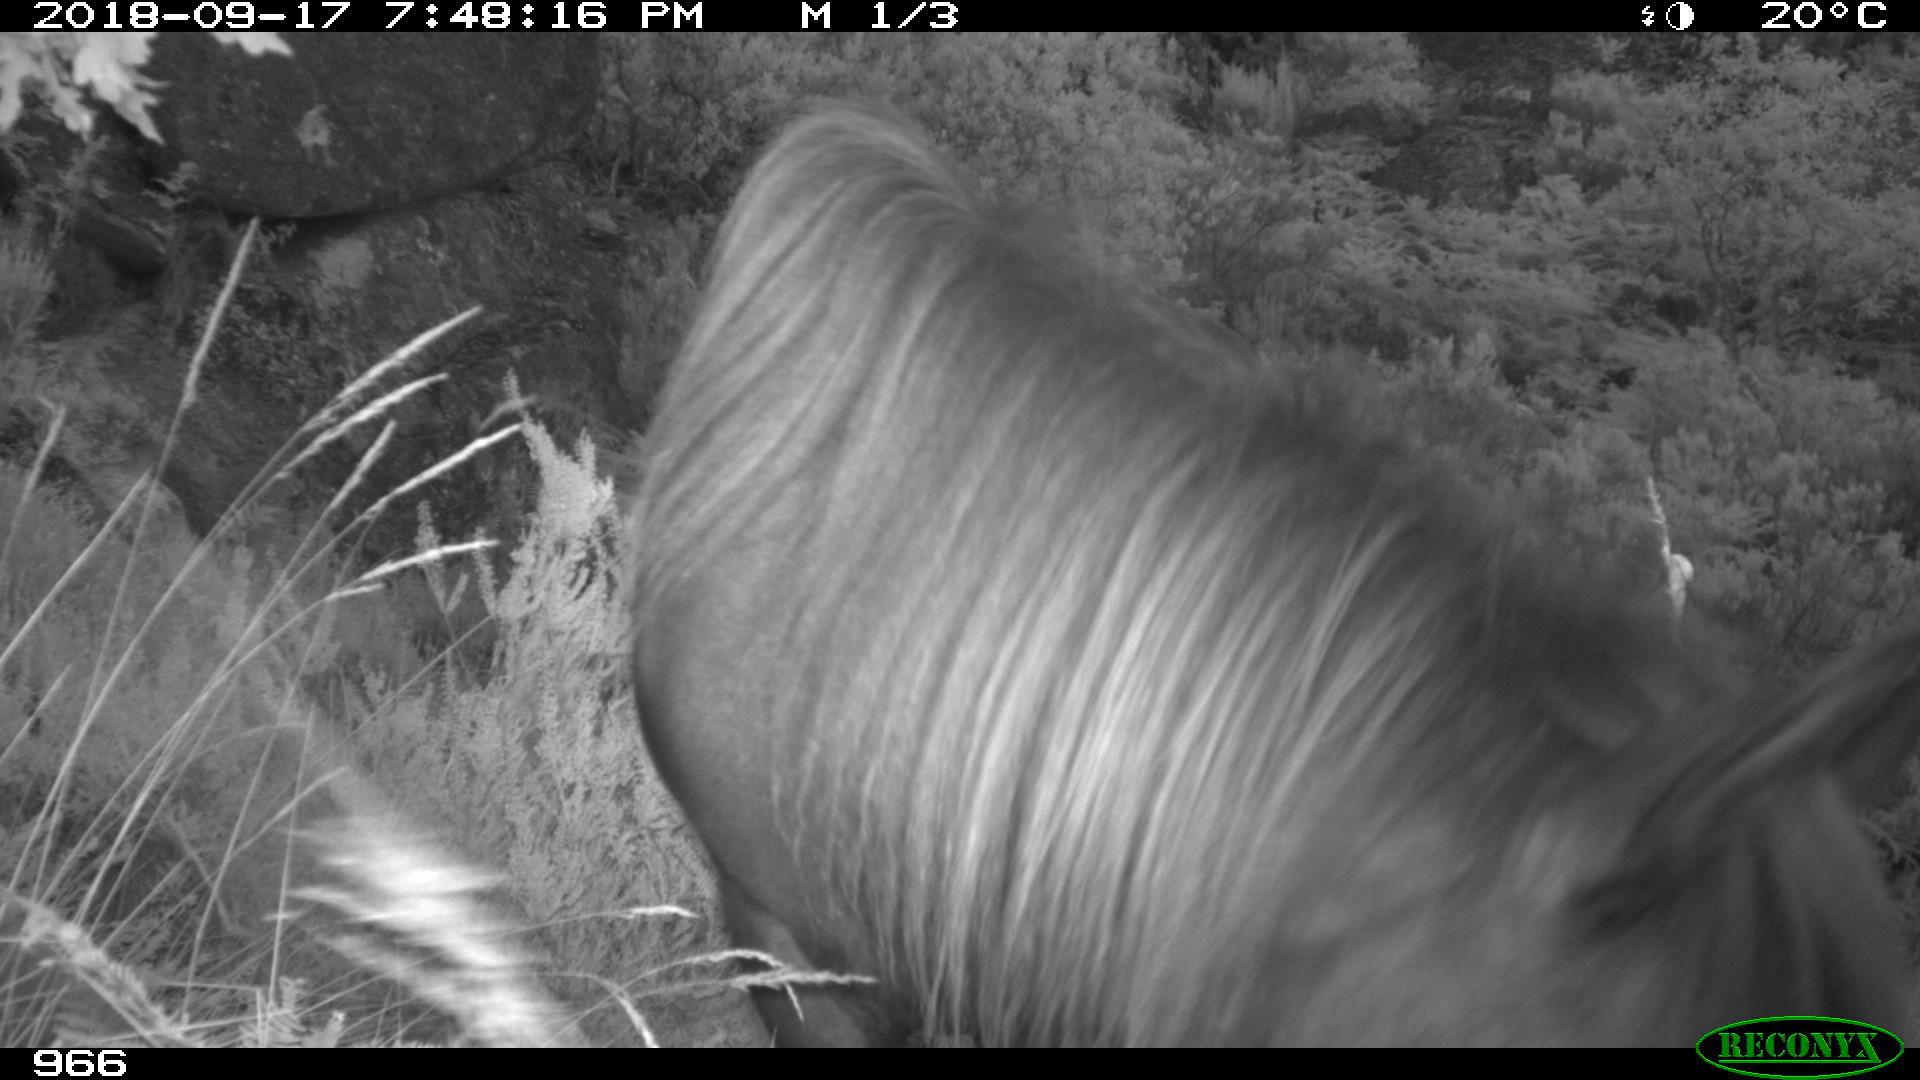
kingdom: Animalia
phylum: Chordata
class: Mammalia
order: Perissodactyla
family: Equidae
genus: Equus
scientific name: Equus caballus
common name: Horse
